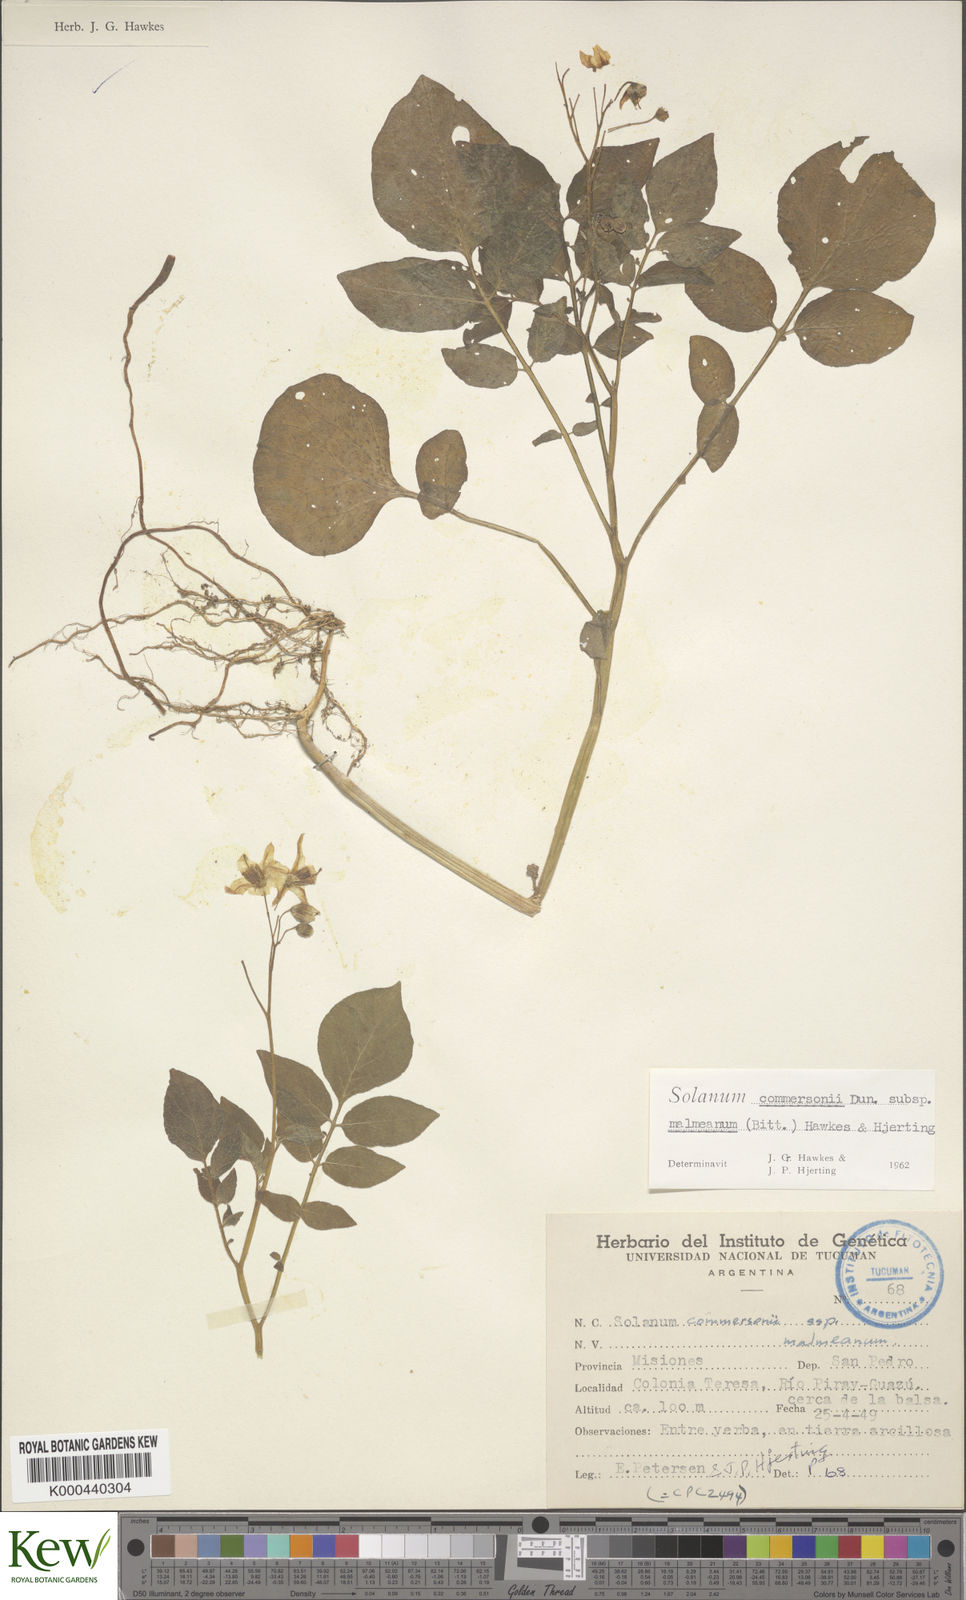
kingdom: Plantae
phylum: Tracheophyta
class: Magnoliopsida
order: Solanales
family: Solanaceae
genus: Solanum
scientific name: Solanum malmeanum
